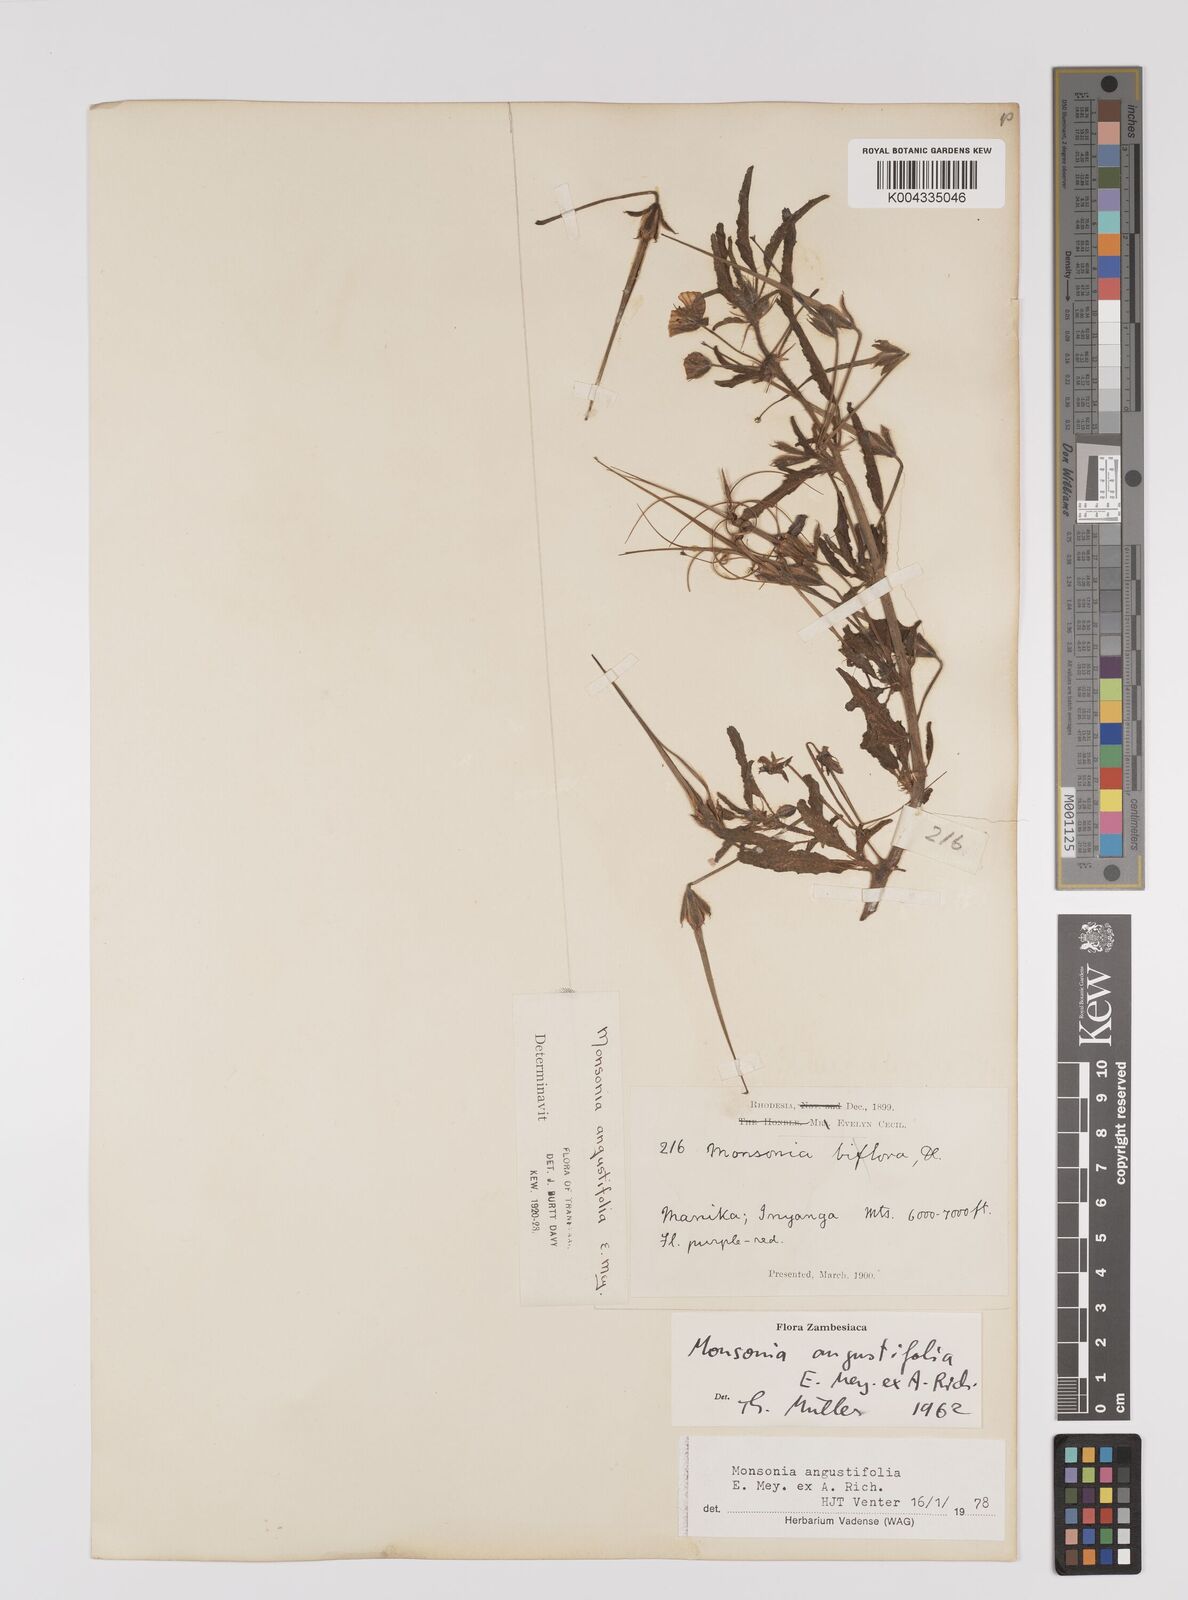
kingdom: Plantae
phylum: Tracheophyta
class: Magnoliopsida
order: Geraniales
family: Geraniaceae
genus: Monsonia
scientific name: Monsonia angustifolia
